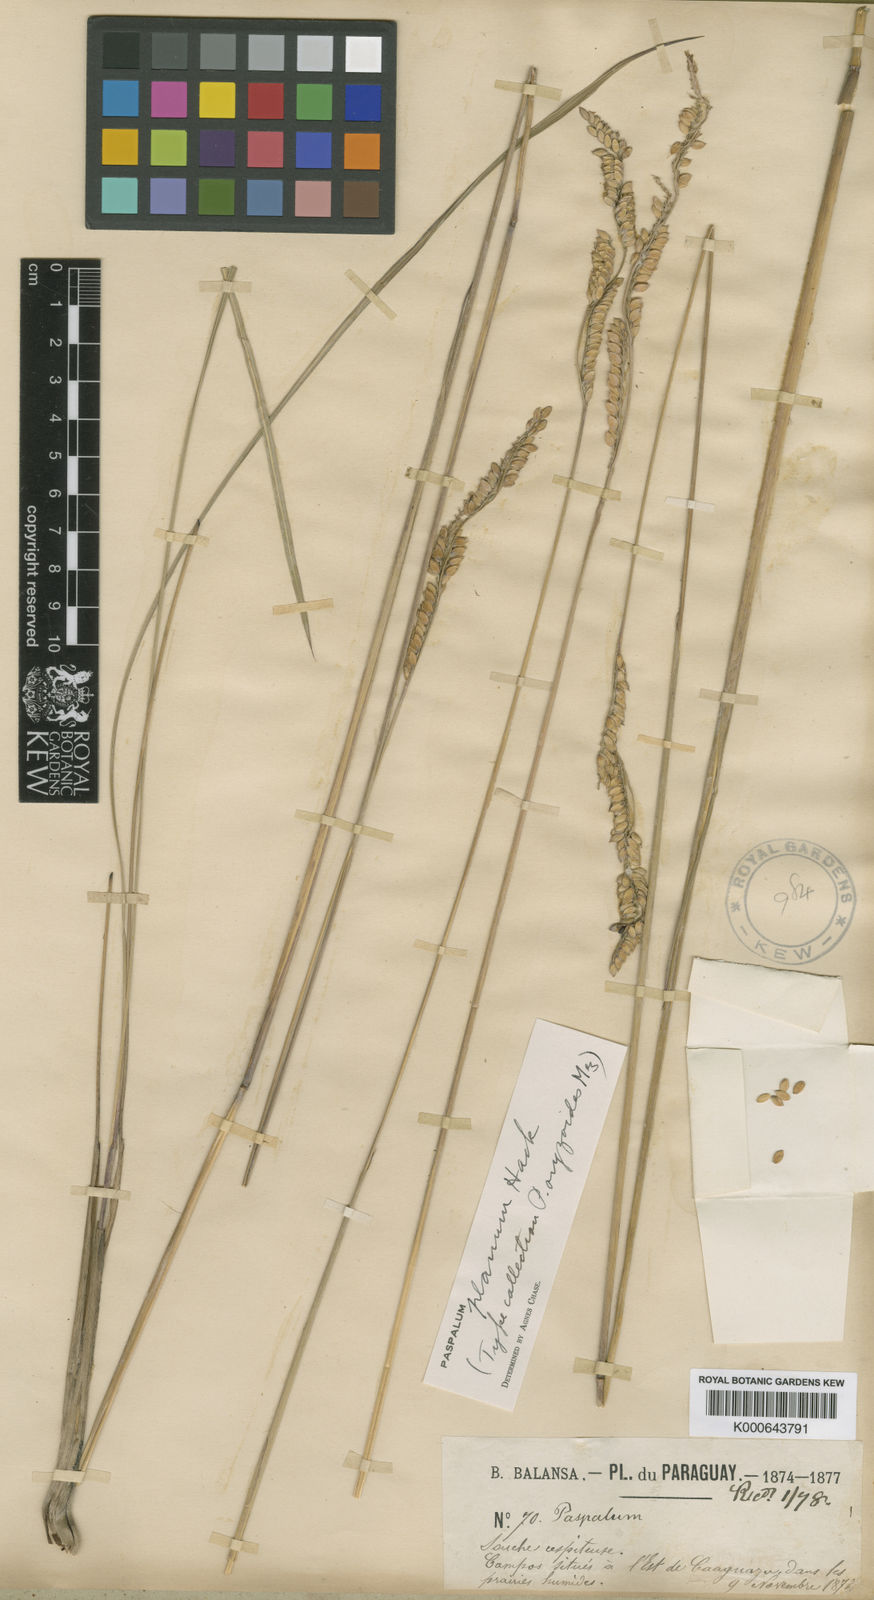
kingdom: Plantae
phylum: Tracheophyta
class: Liliopsida
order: Poales
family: Poaceae
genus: Paspalum
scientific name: Paspalum planum
